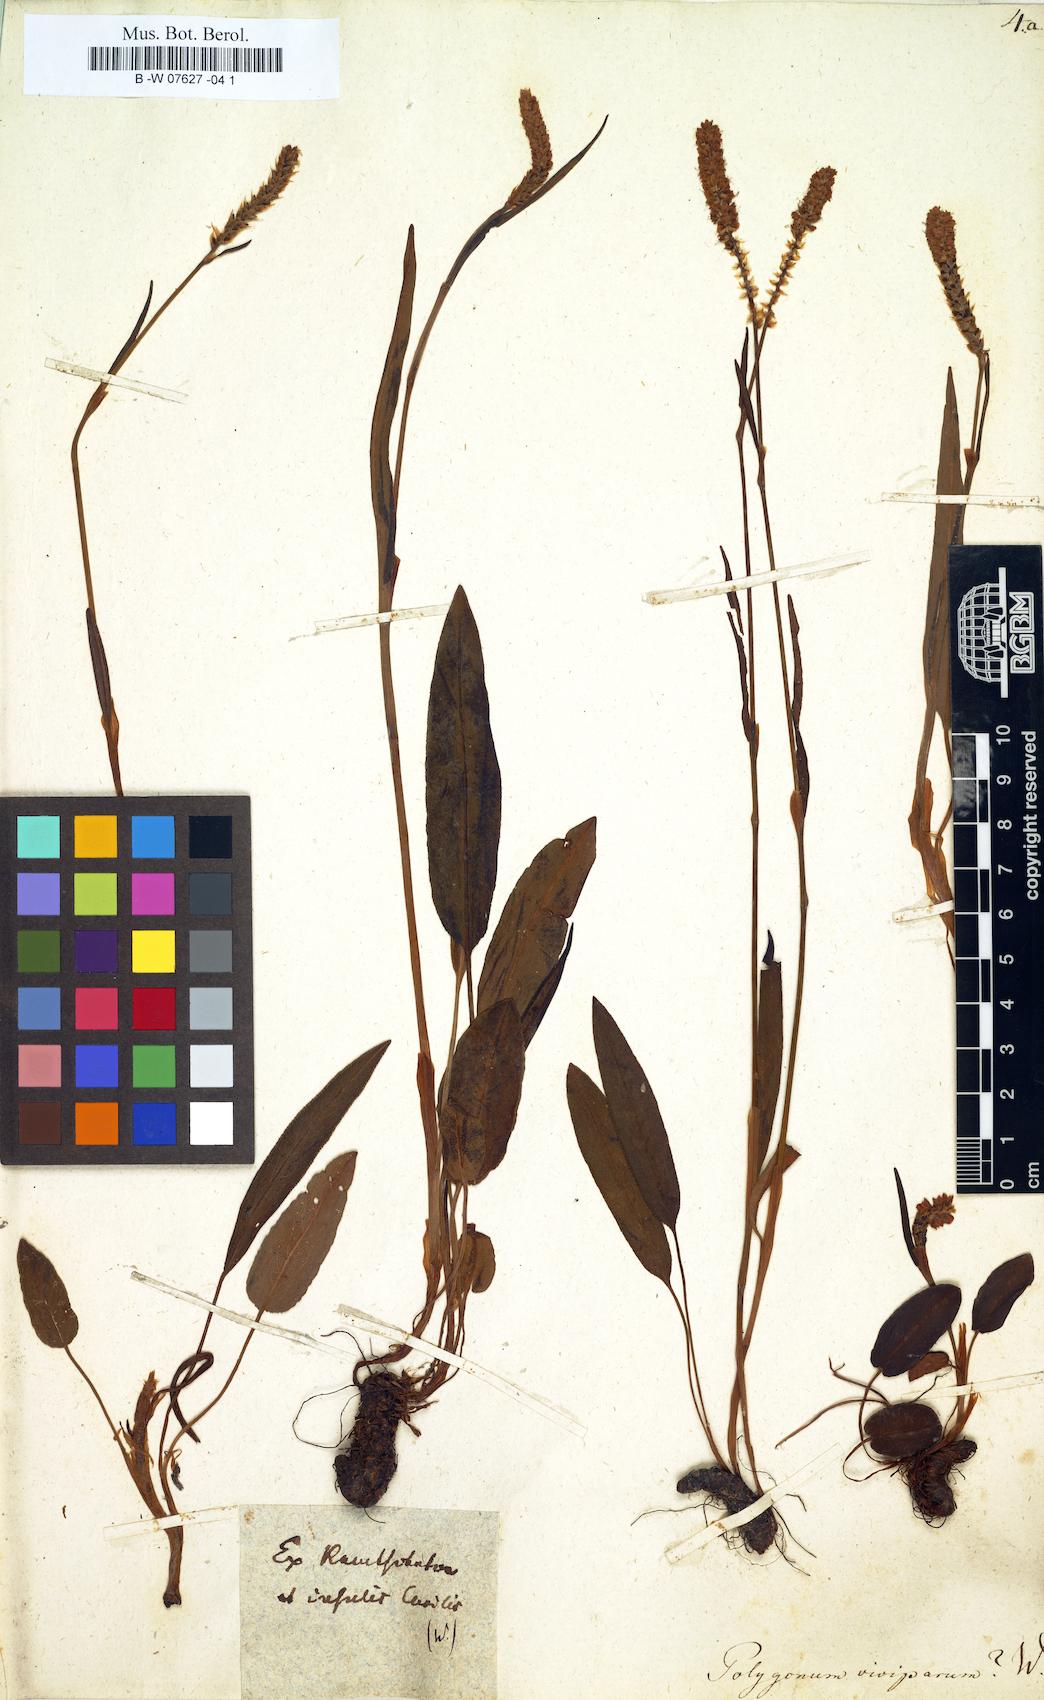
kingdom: Plantae
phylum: Tracheophyta
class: Magnoliopsida
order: Caryophyllales
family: Polygonaceae
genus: Bistorta
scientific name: Bistorta vivipara
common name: Alpine bistort
